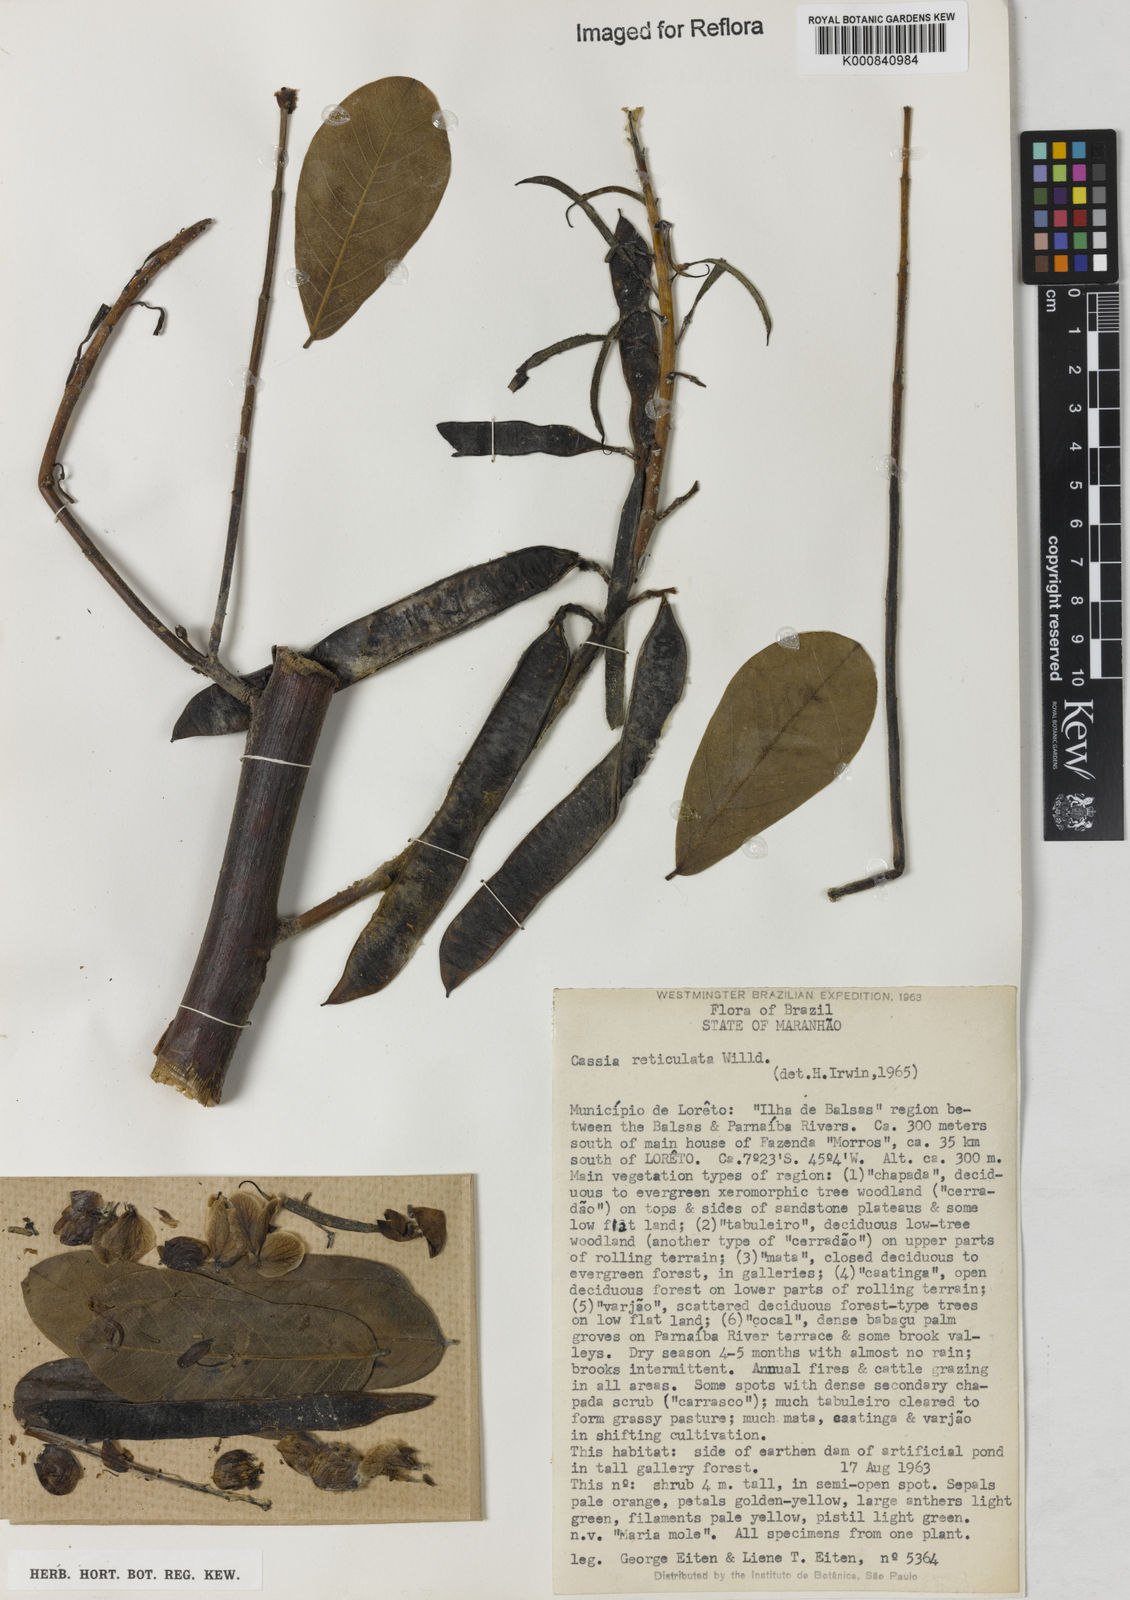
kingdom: Plantae
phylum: Tracheophyta
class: Magnoliopsida
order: Fabales
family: Fabaceae
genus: Senna
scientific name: Senna reticulata
